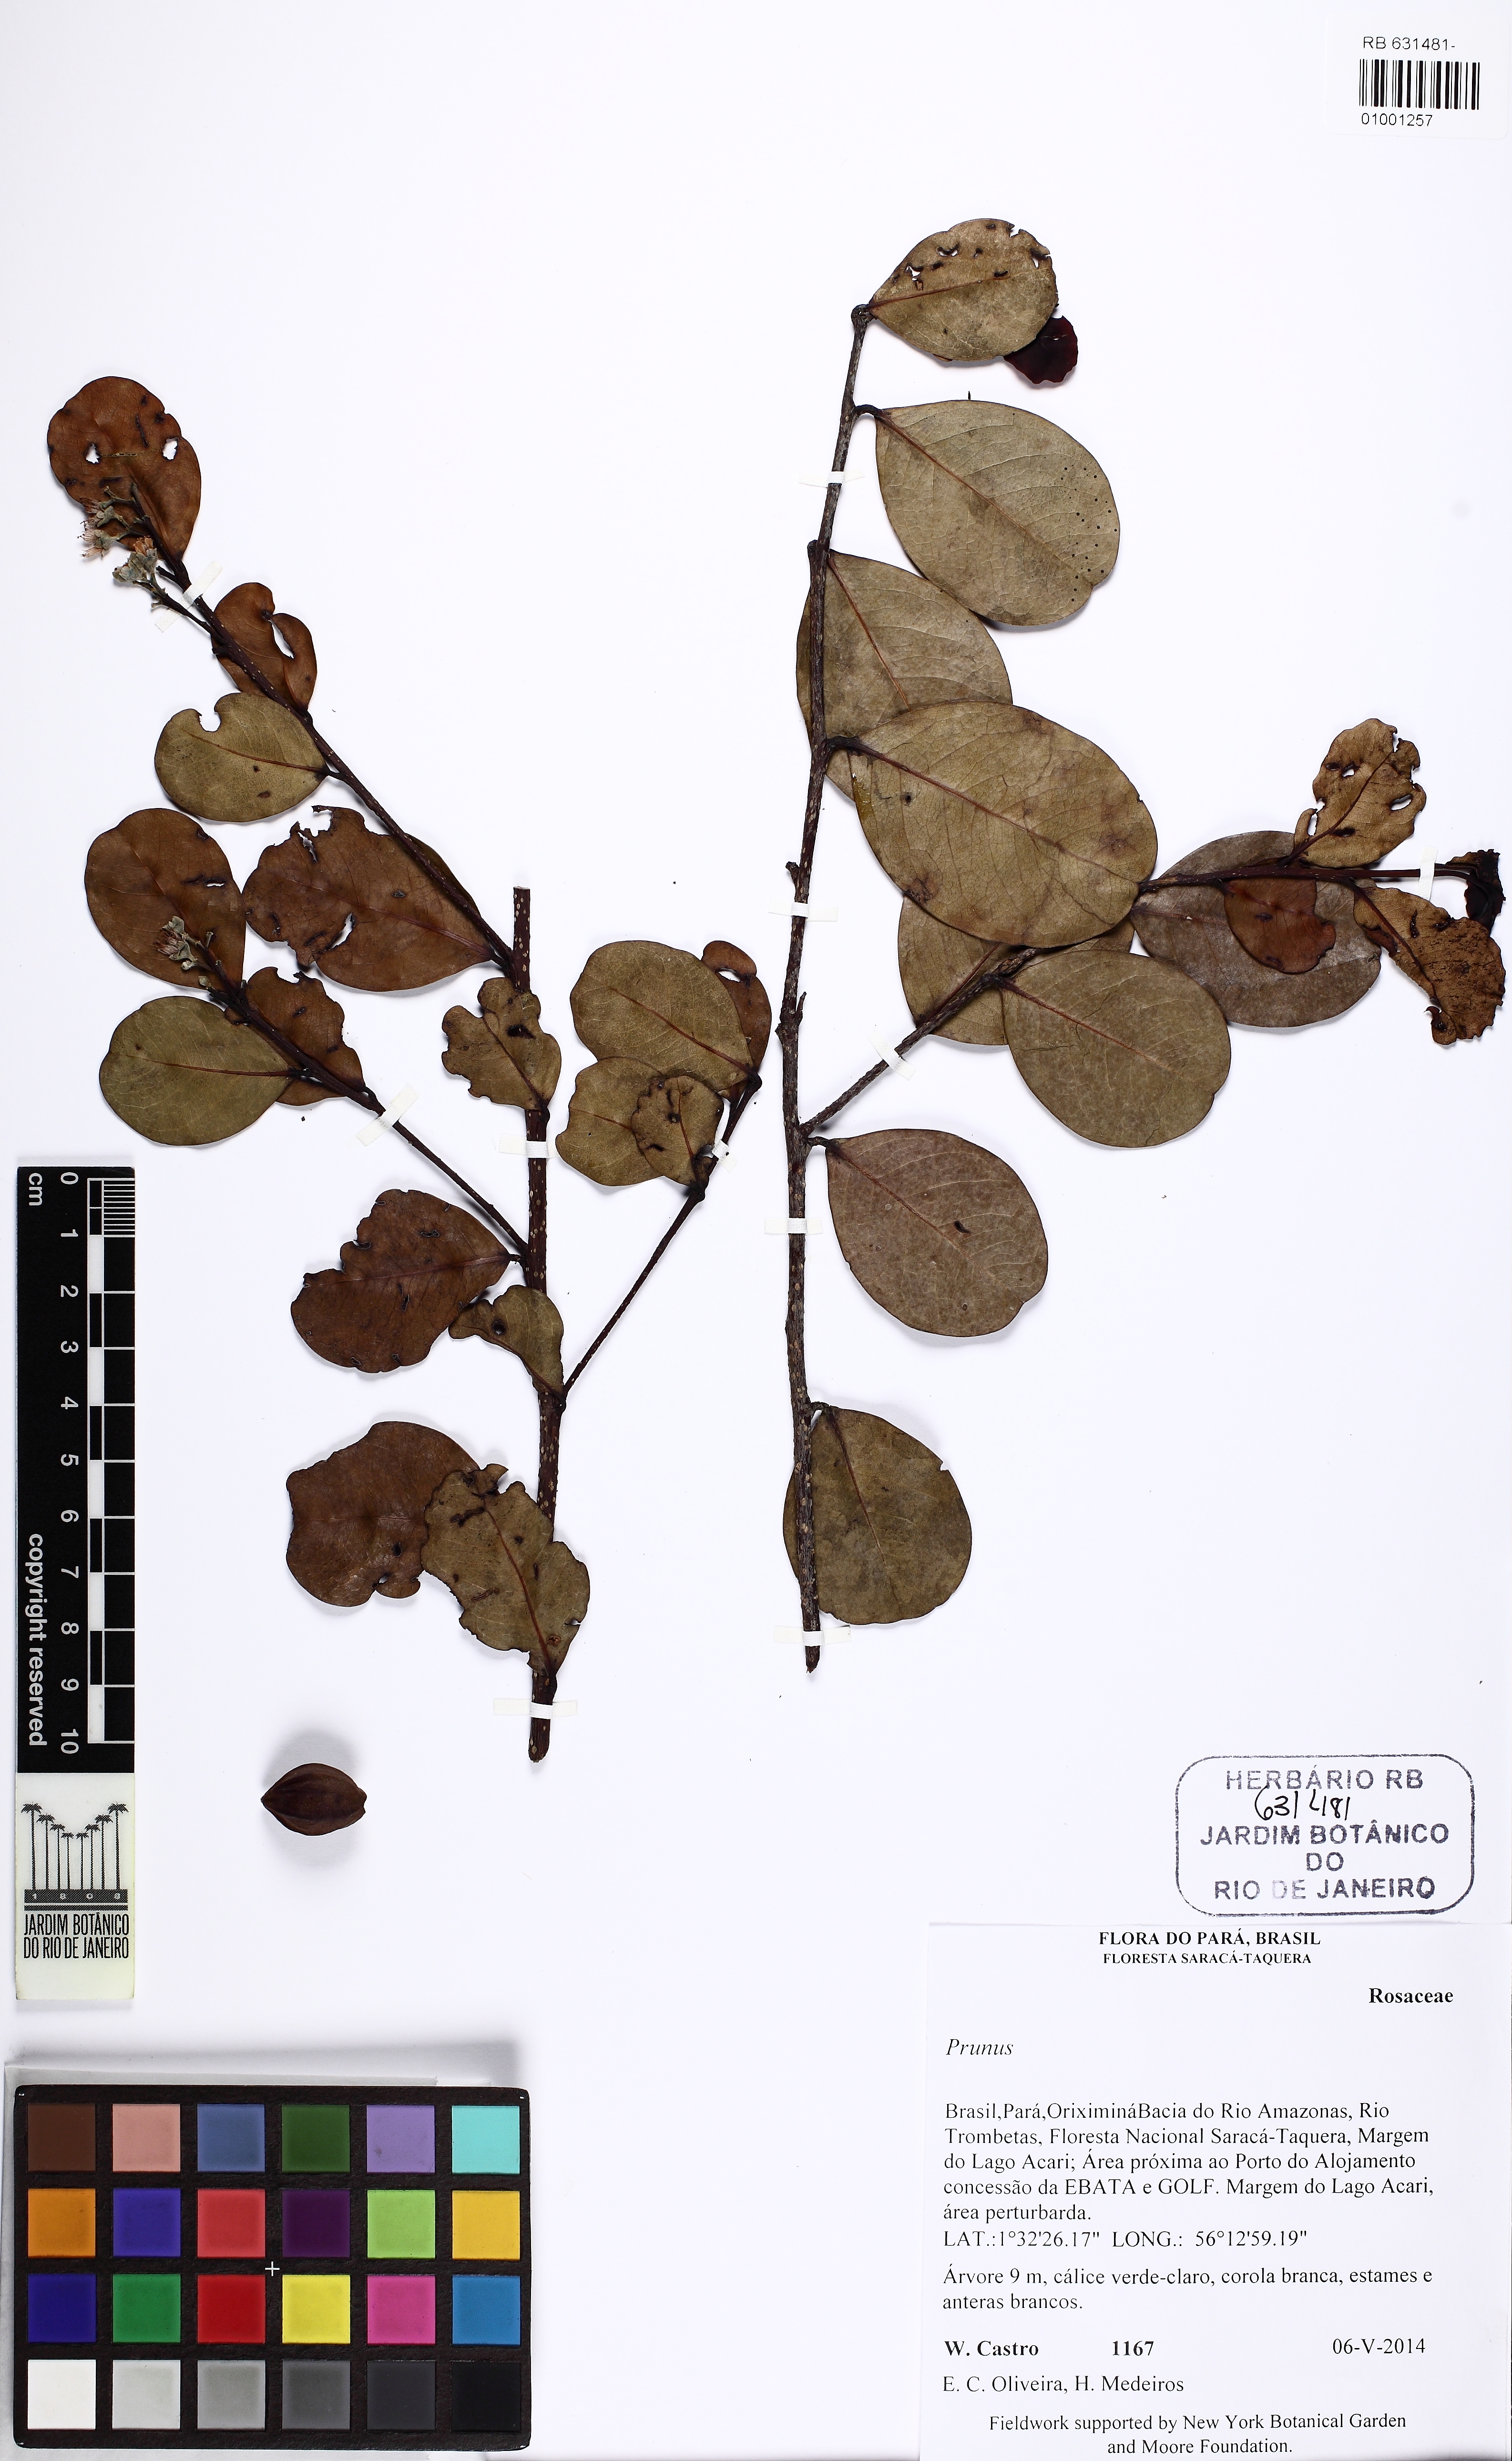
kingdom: Plantae
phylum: Tracheophyta
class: Magnoliopsida
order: Rosales
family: Rosaceae
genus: Prunus
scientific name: Prunus
